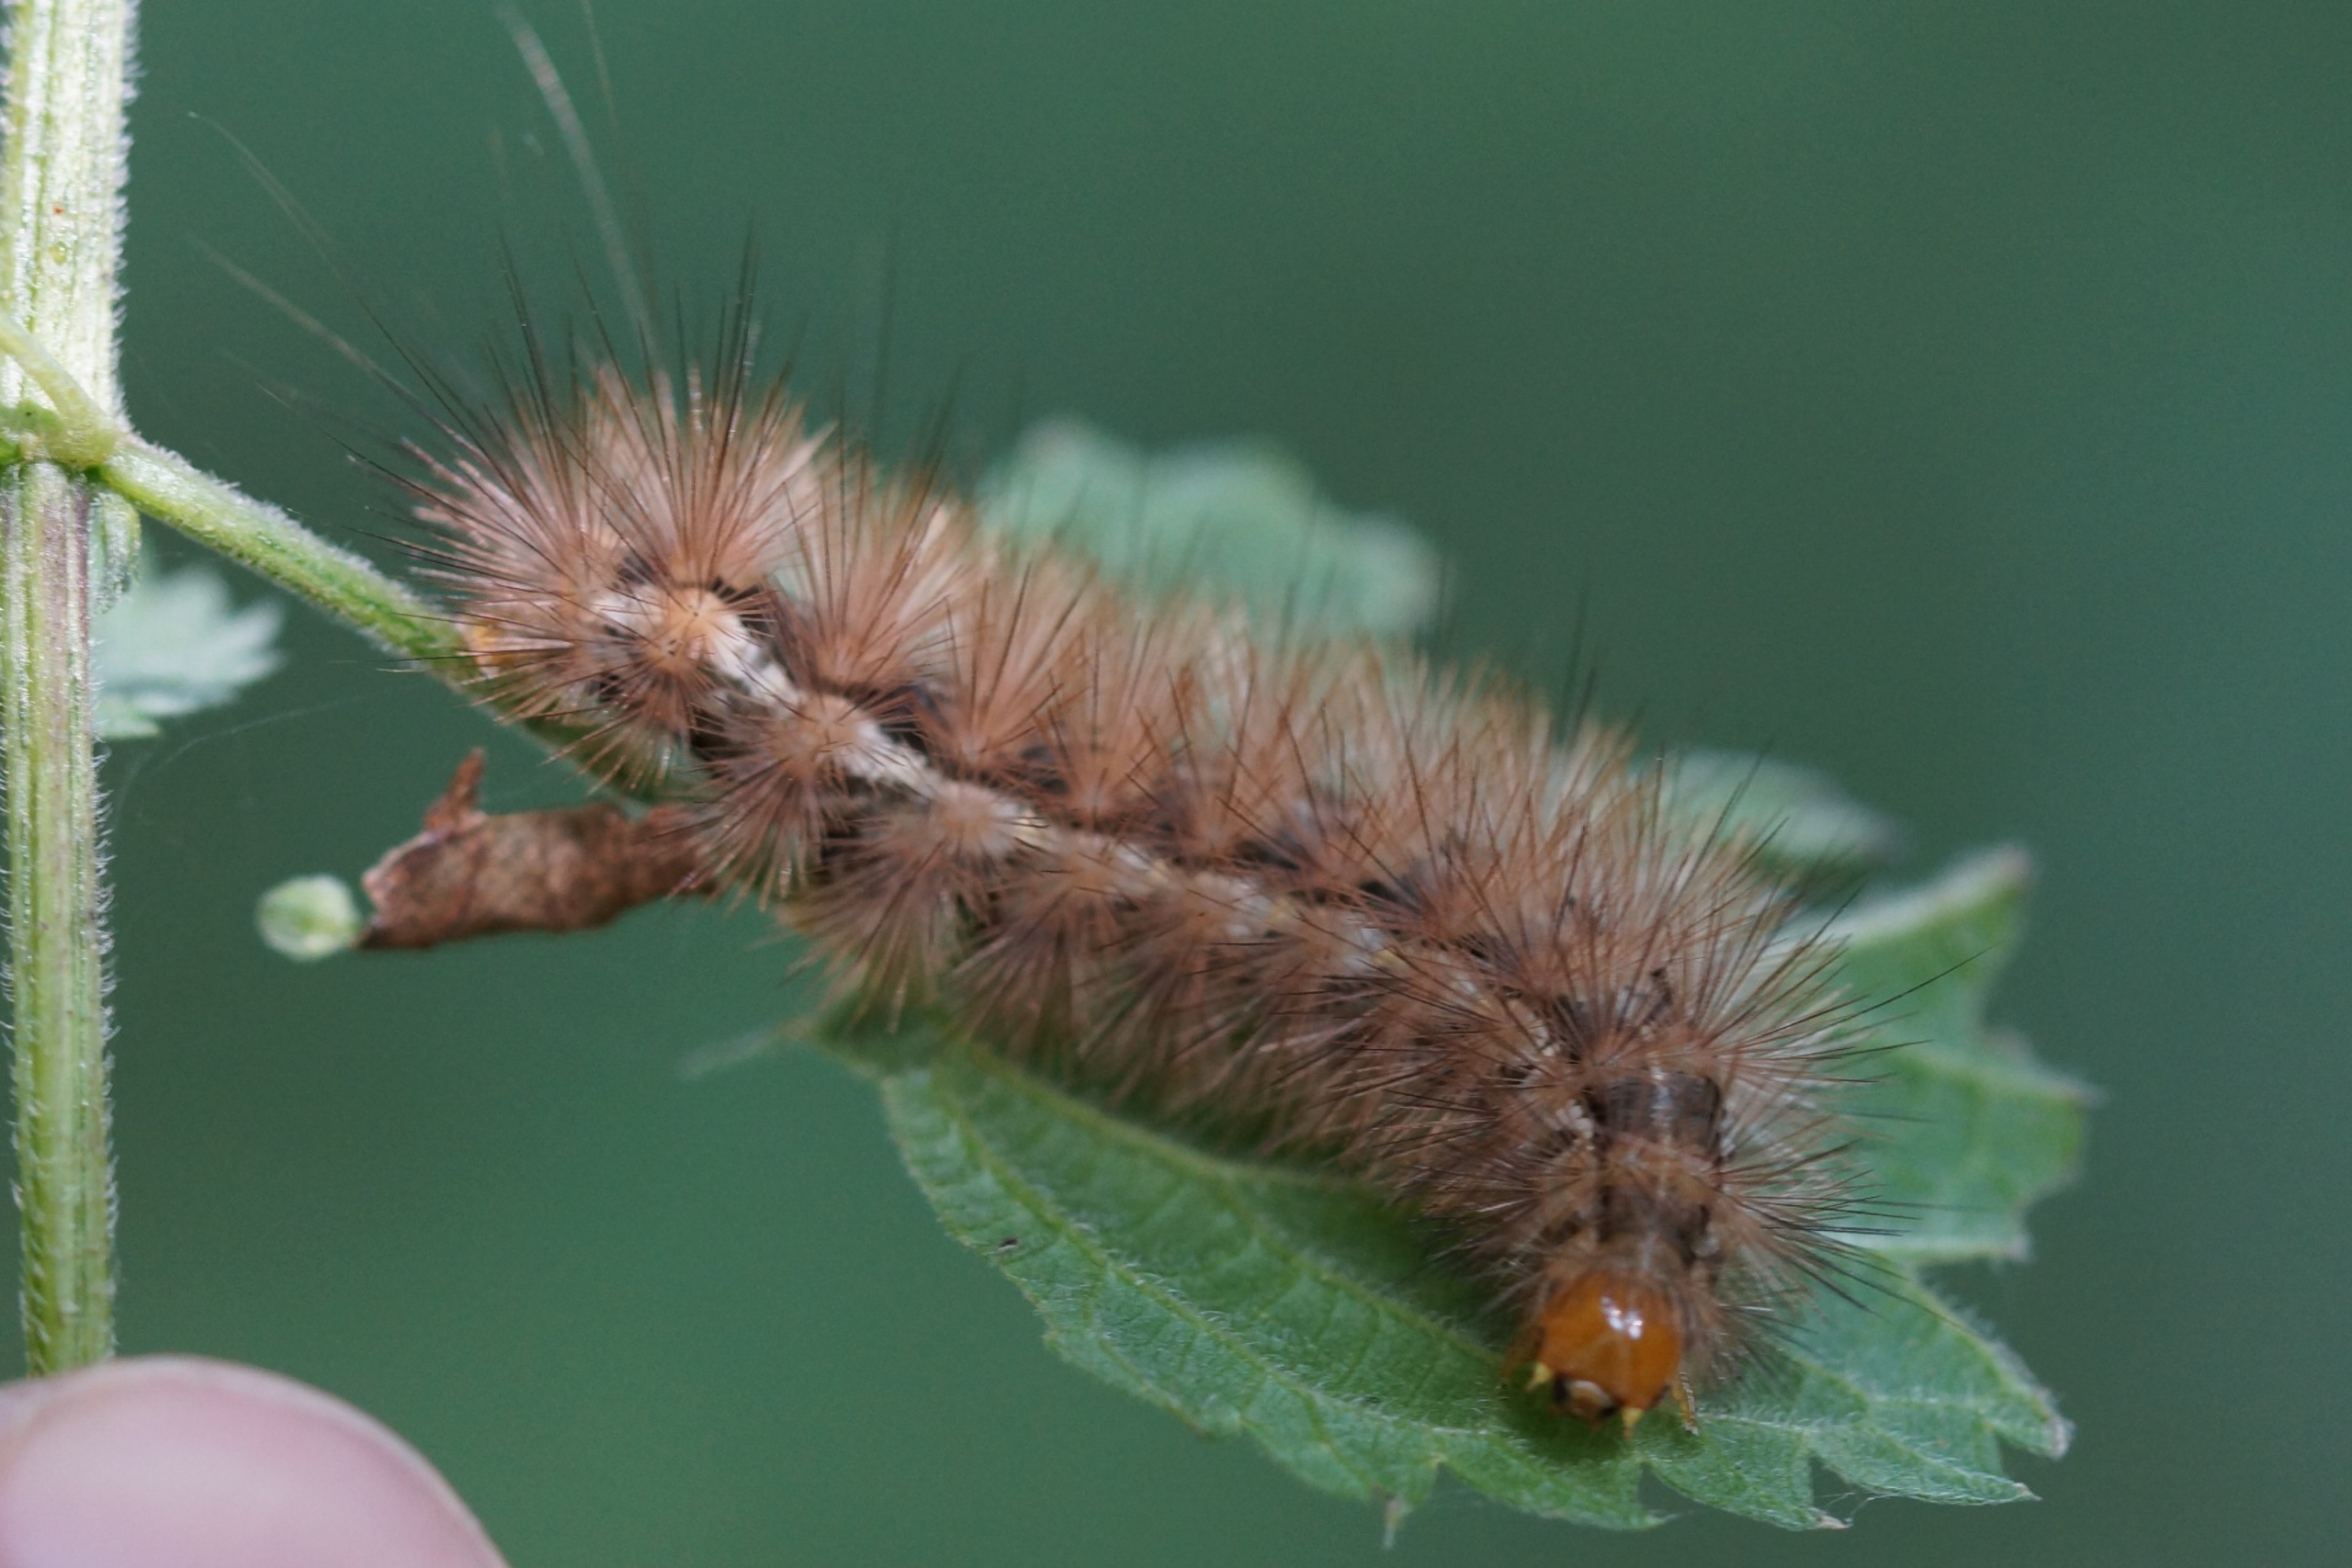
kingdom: Animalia
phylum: Arthropoda
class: Insecta
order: Lepidoptera
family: Erebidae
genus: Spilarctia
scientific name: Spilarctia lutea
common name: Gul tigerspinder
